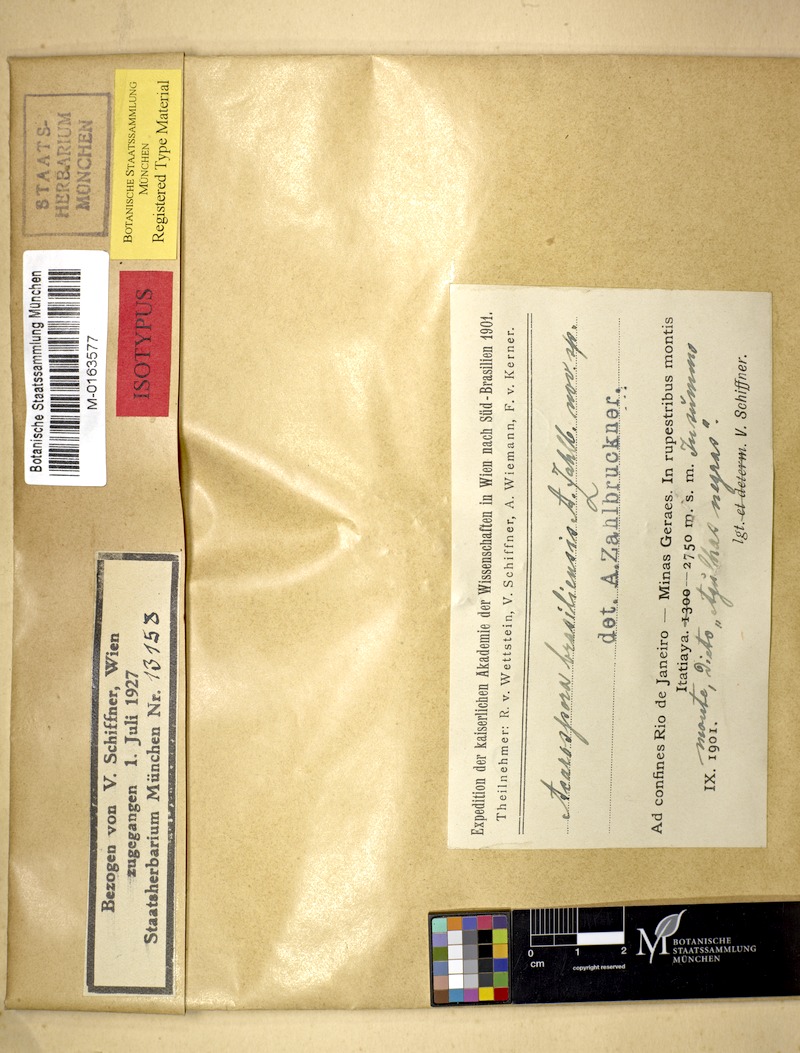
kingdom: Fungi
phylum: Ascomycota
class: Lecanoromycetes
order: Acarosporales
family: Acarosporaceae
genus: Acarospora
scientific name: Acarospora lorentzii
